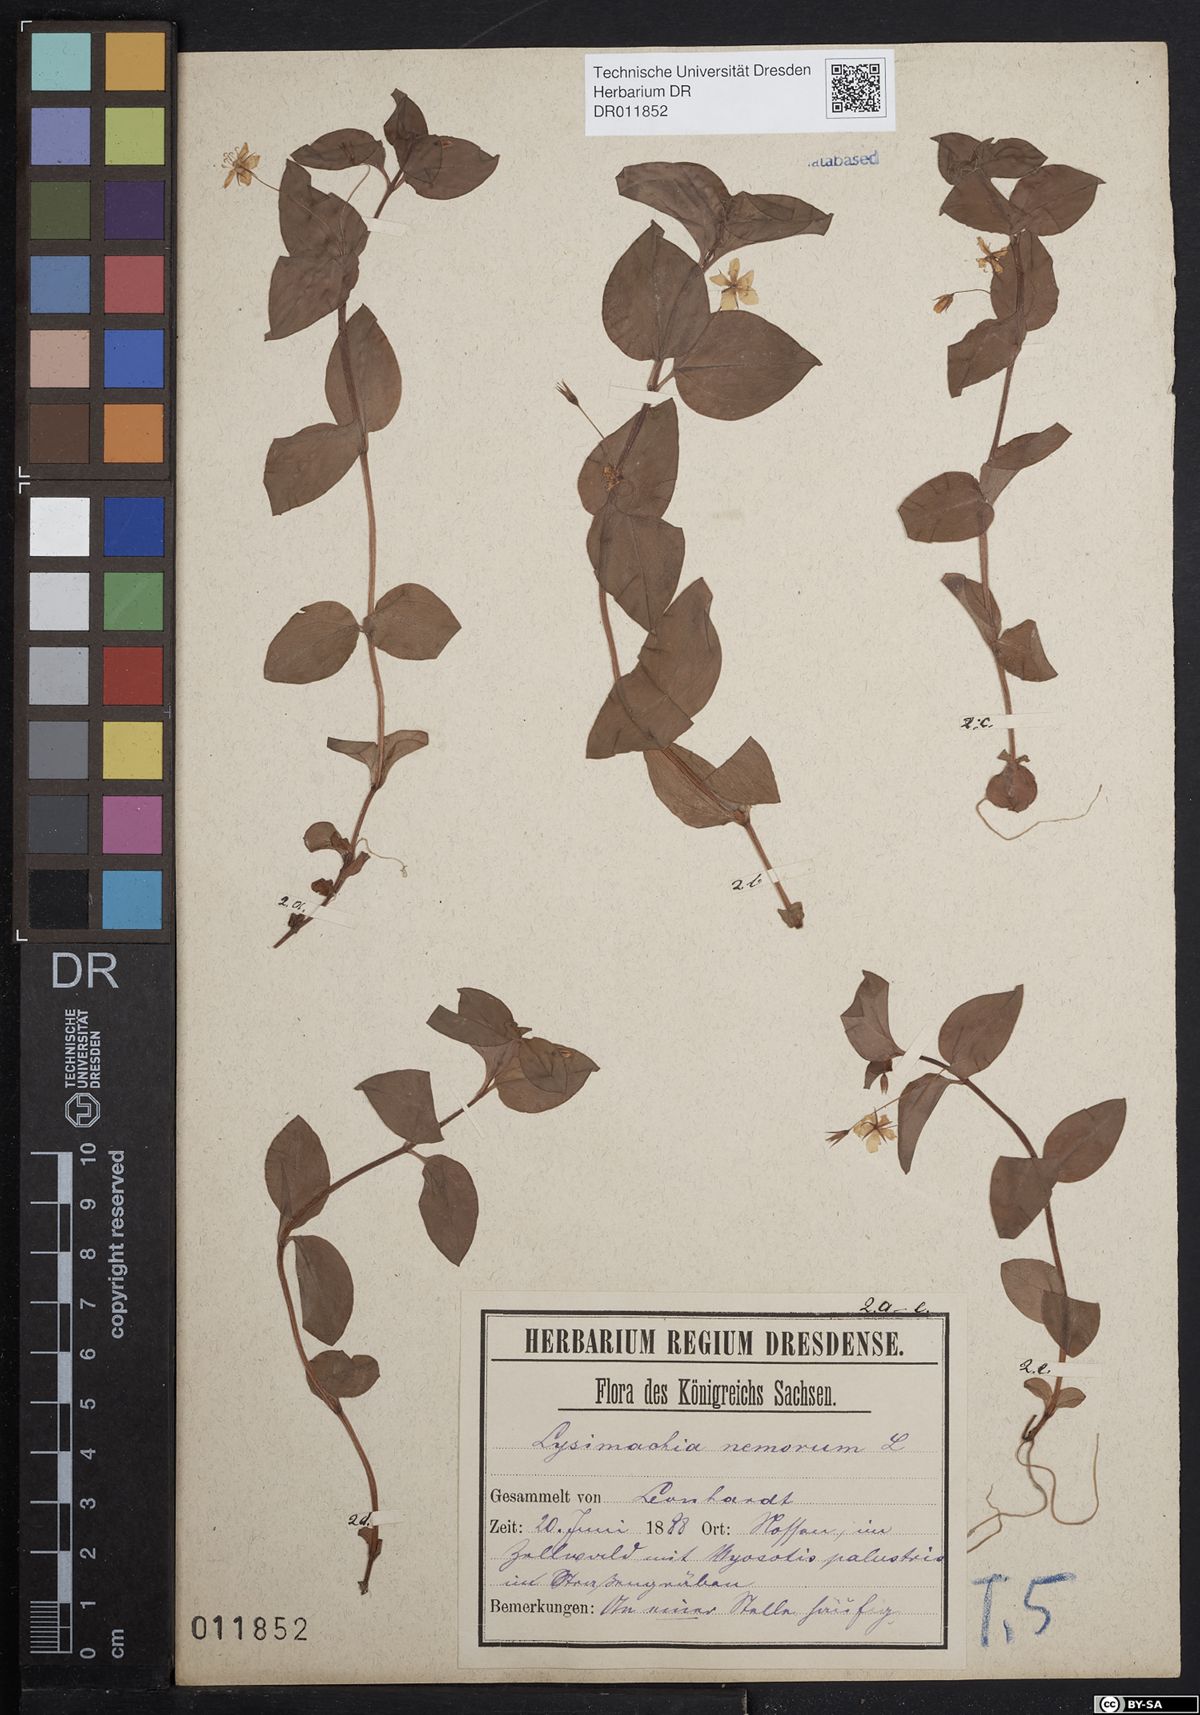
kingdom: Plantae
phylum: Tracheophyta
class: Magnoliopsida
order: Ericales
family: Primulaceae
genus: Lysimachia
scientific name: Lysimachia nemorum
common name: Yellow pimpernel
